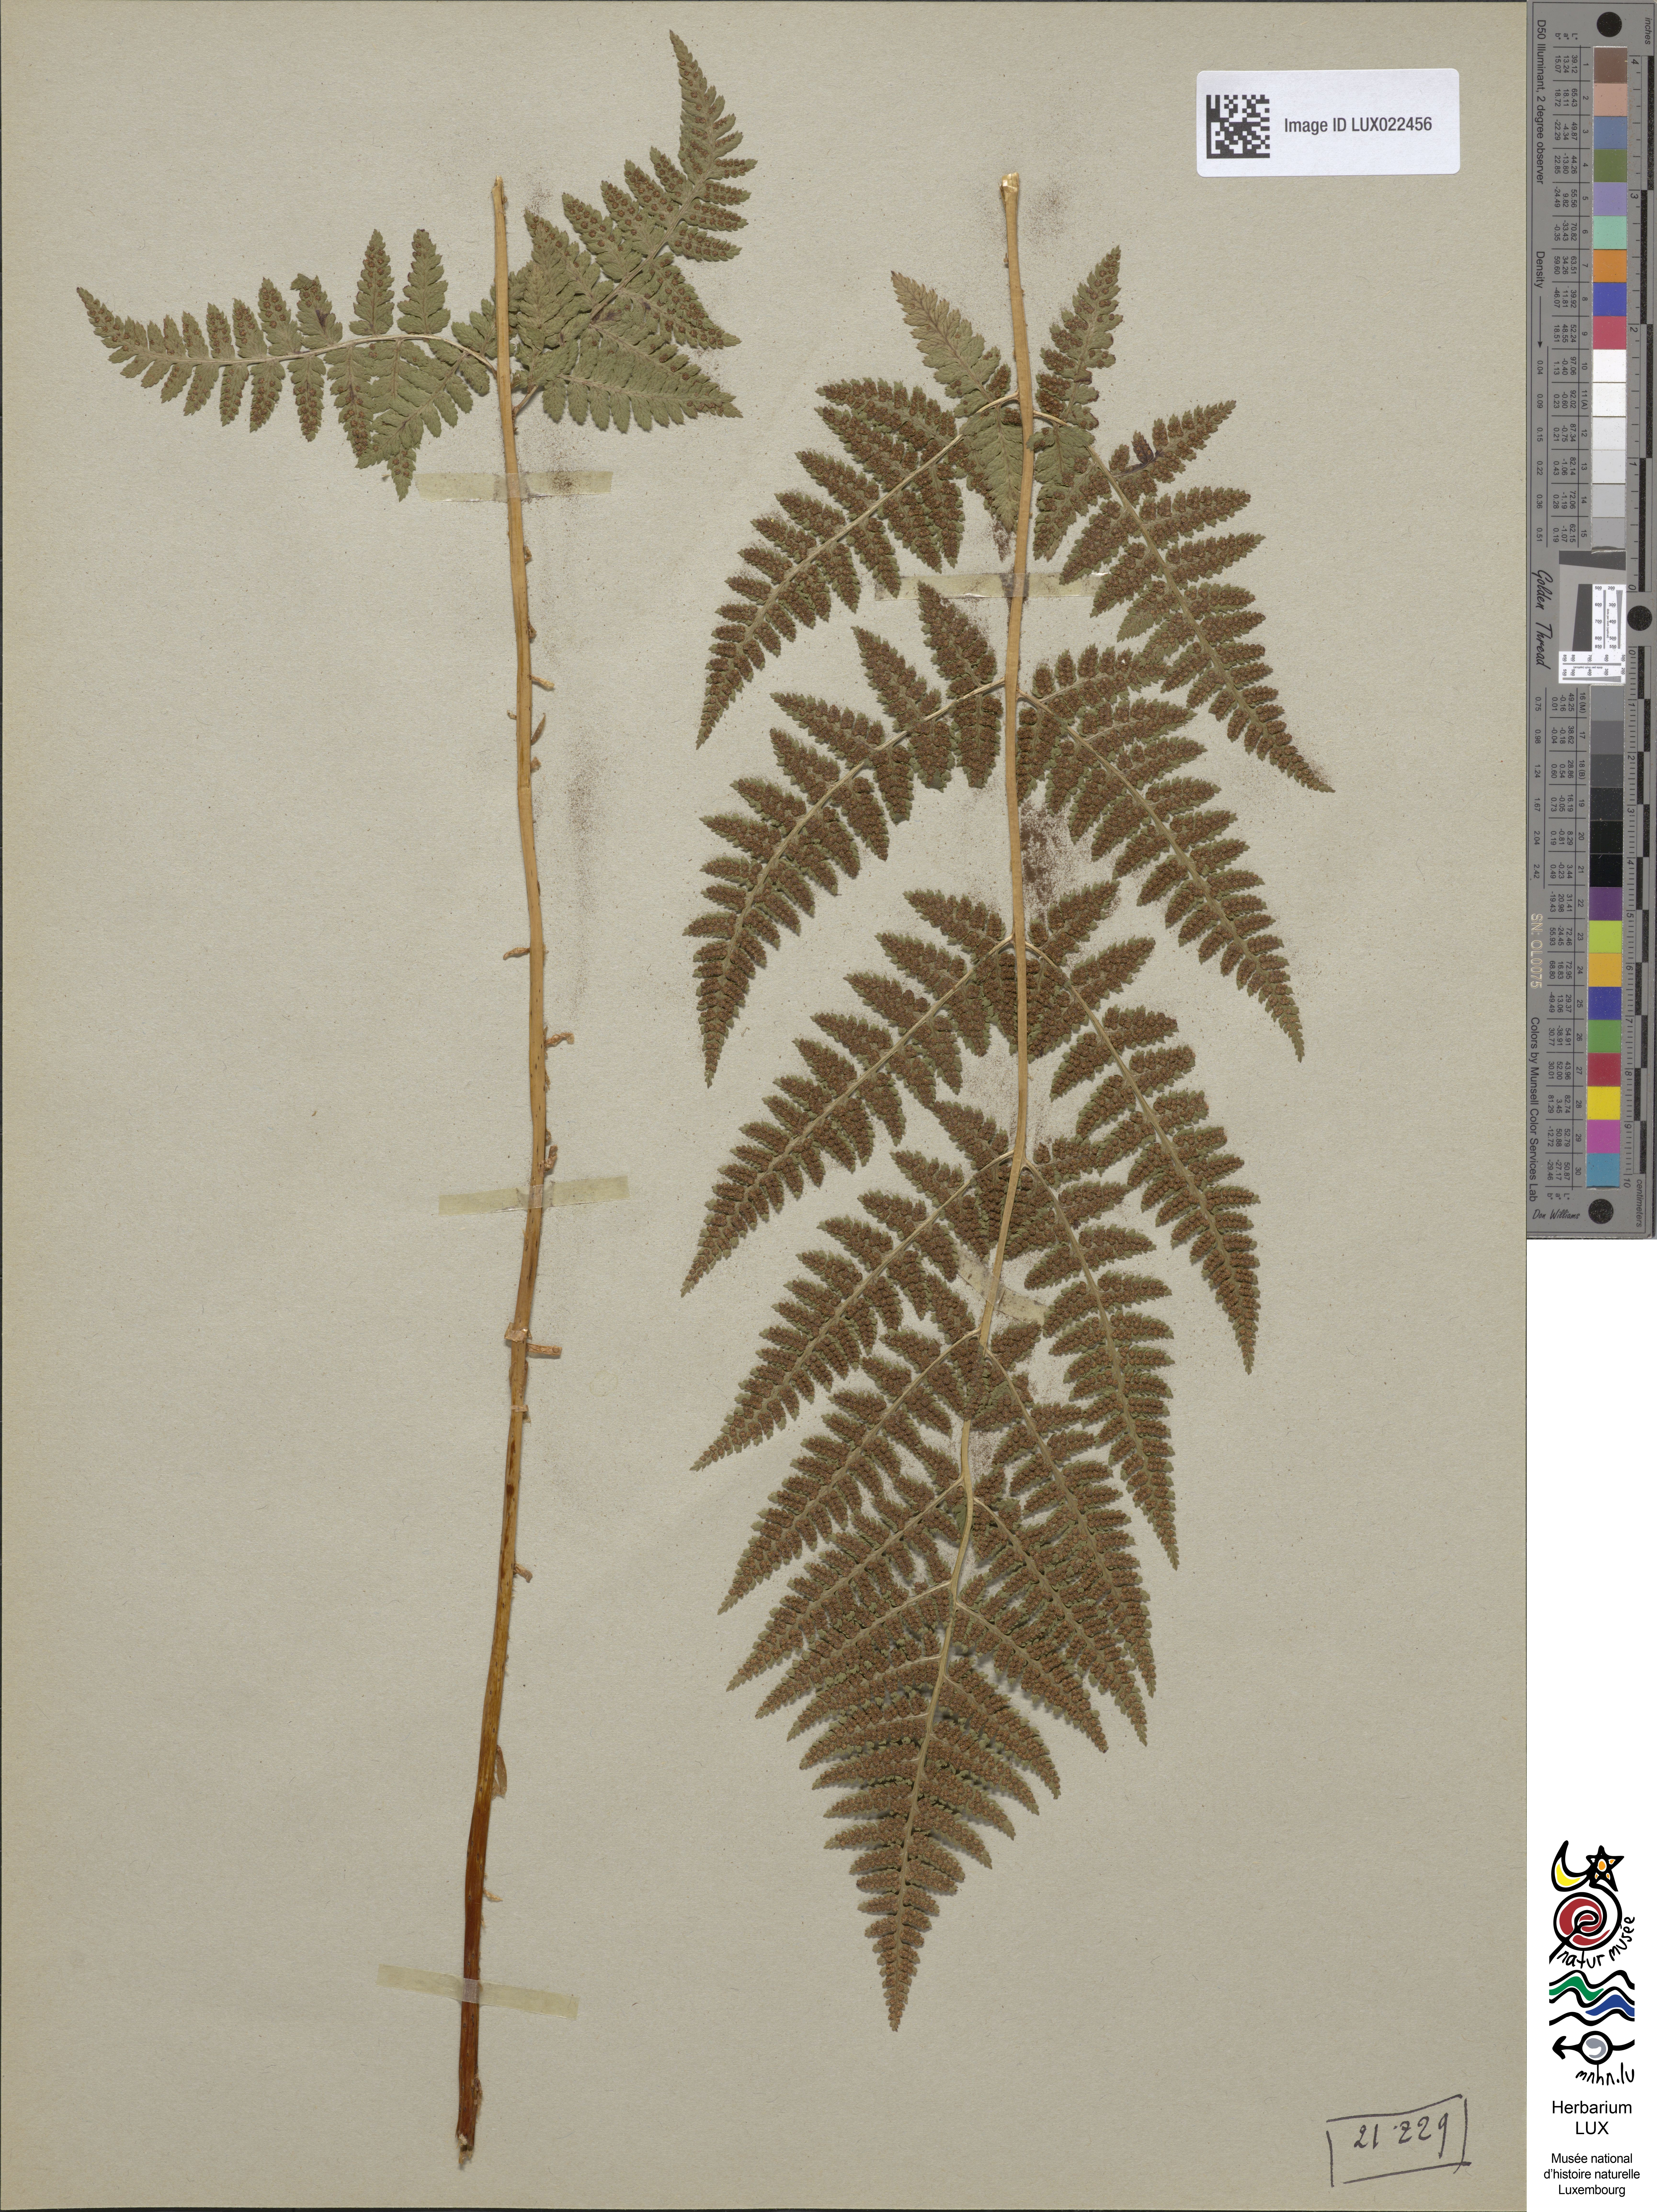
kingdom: Plantae
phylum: Tracheophyta
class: Polypodiopsida
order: Polypodiales
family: Dryopteridaceae
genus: Dryopteris
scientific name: Dryopteris carthusiana
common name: Narrow buckler-fern
